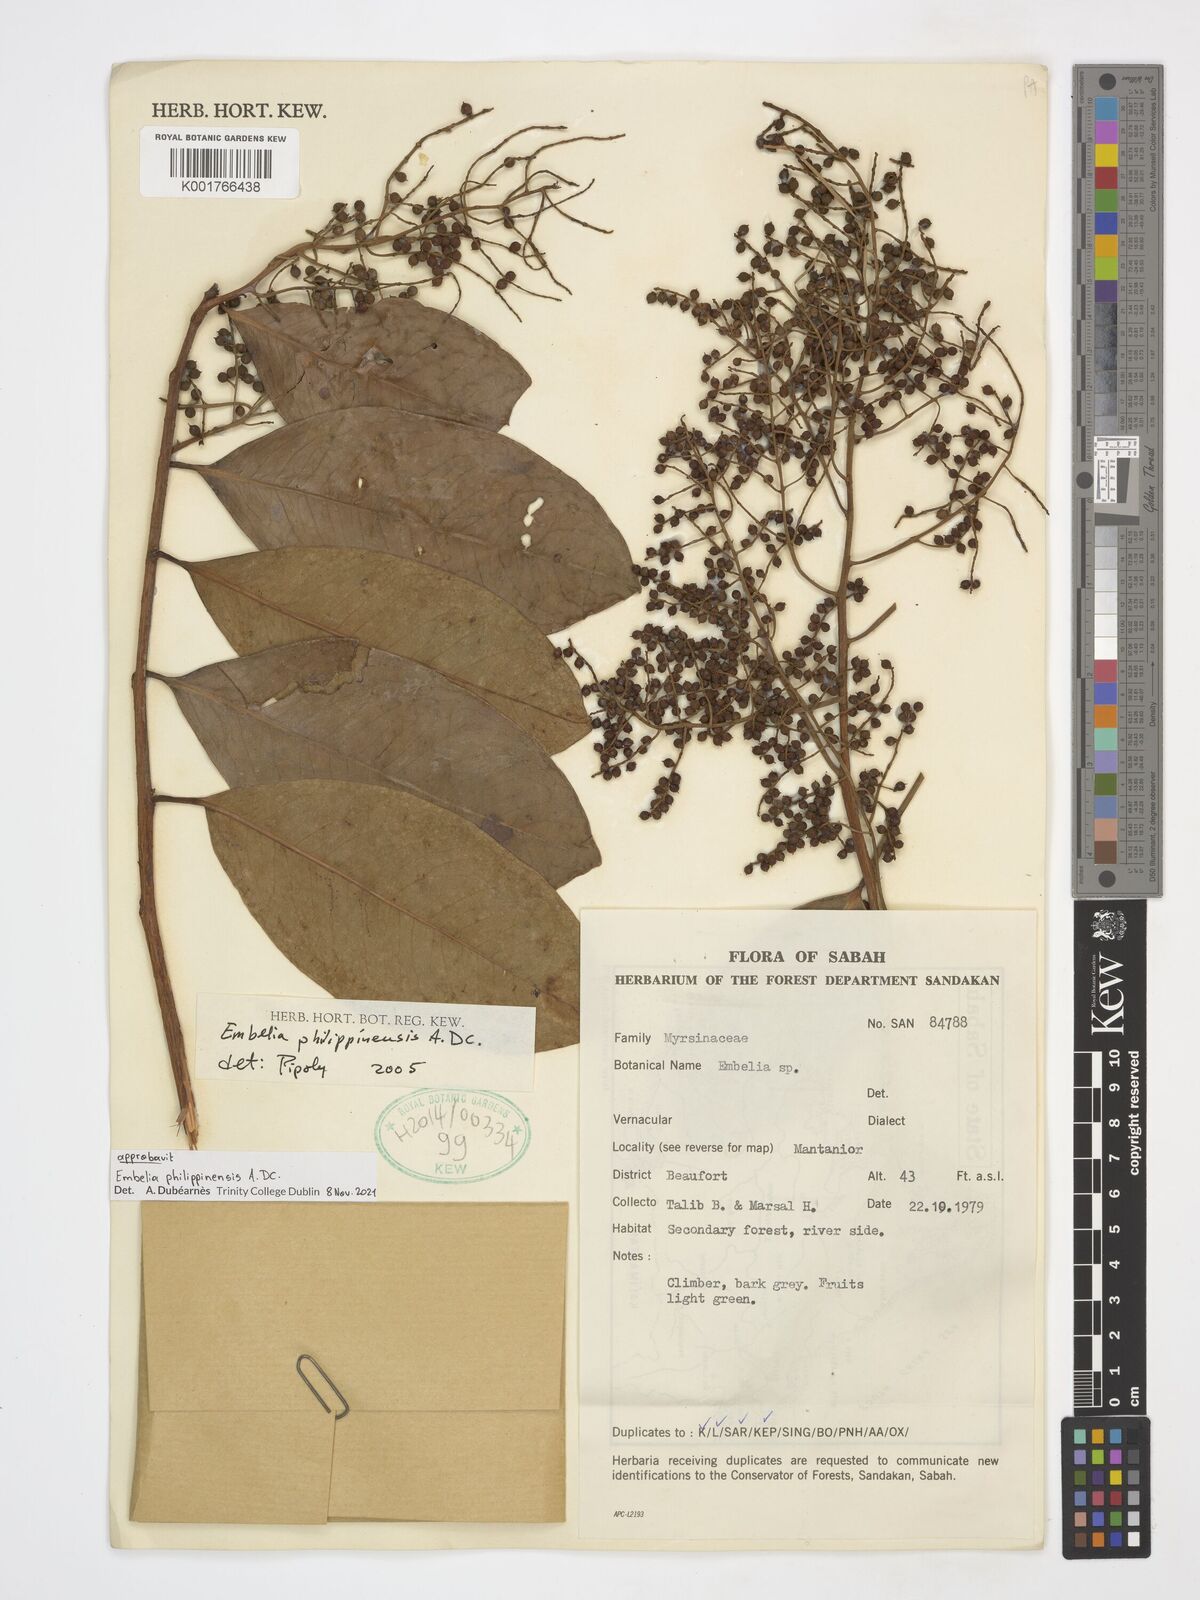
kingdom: Plantae
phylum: Tracheophyta
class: Magnoliopsida
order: Ericales
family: Primulaceae
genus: Embelia
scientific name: Embelia philippinensis
